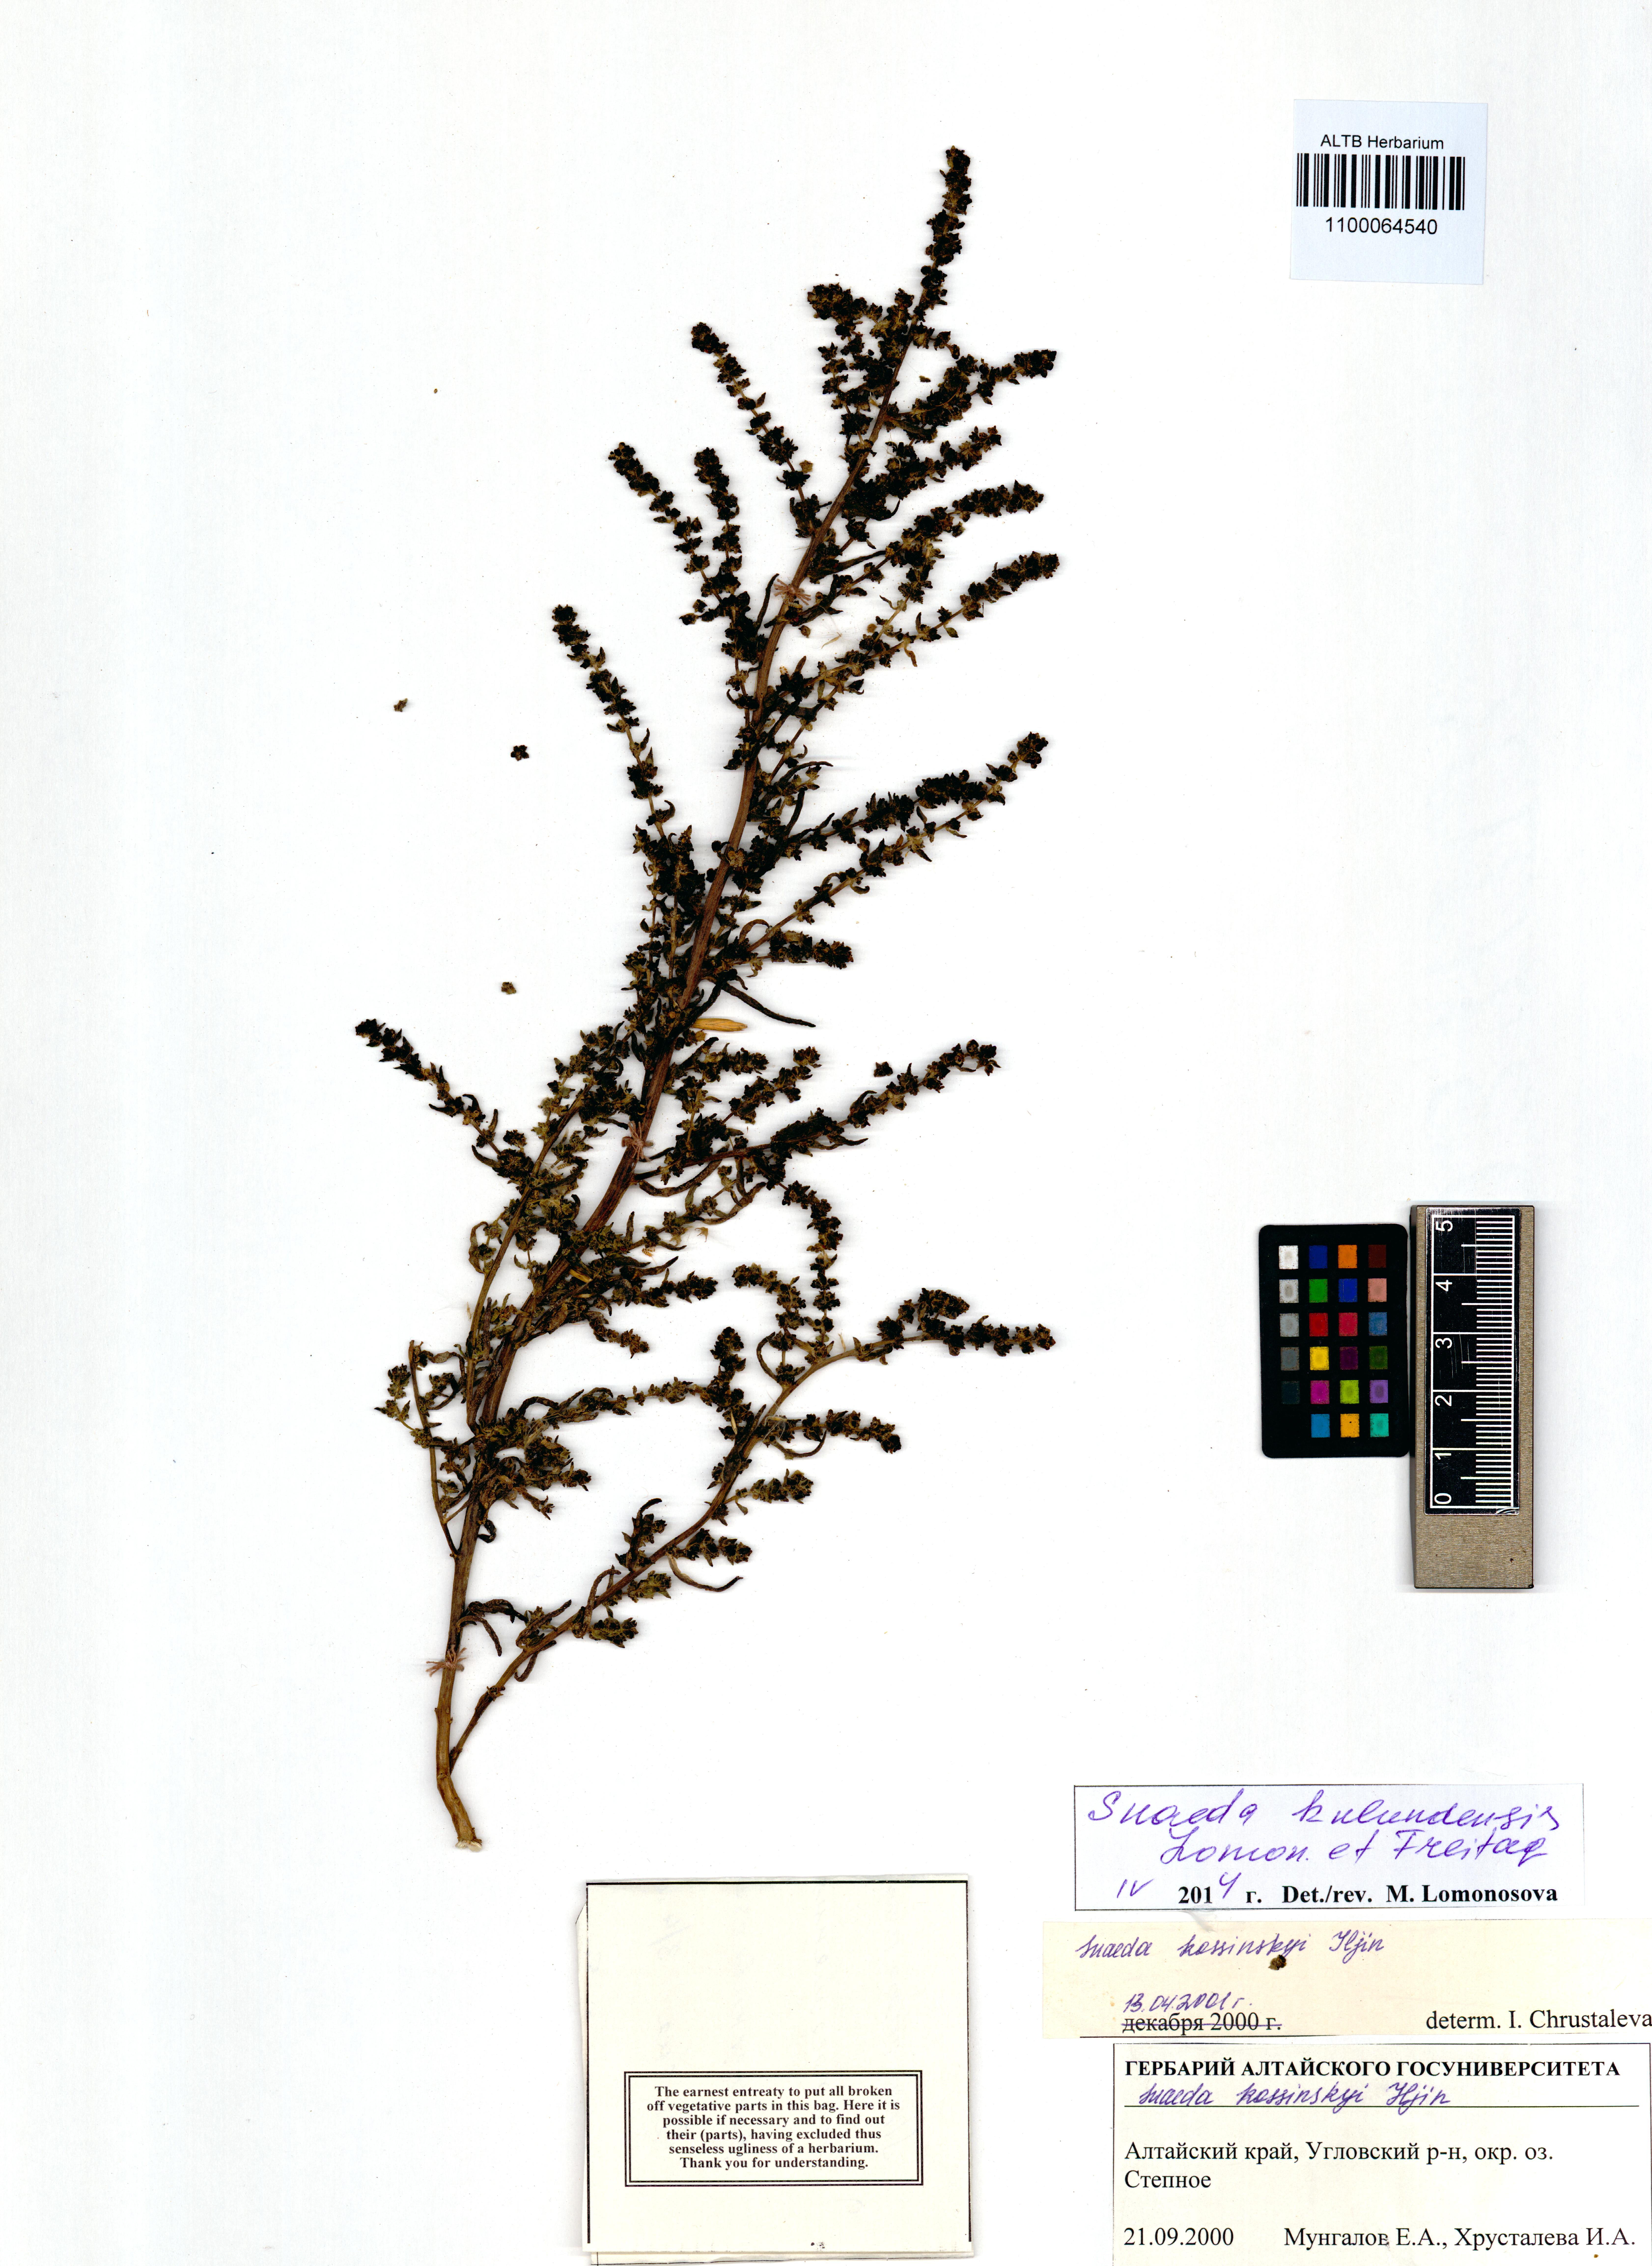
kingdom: Plantae
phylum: Tracheophyta
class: Magnoliopsida
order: Caryophyllales
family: Amaranthaceae
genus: Suaeda
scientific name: Suaeda kulundensis
